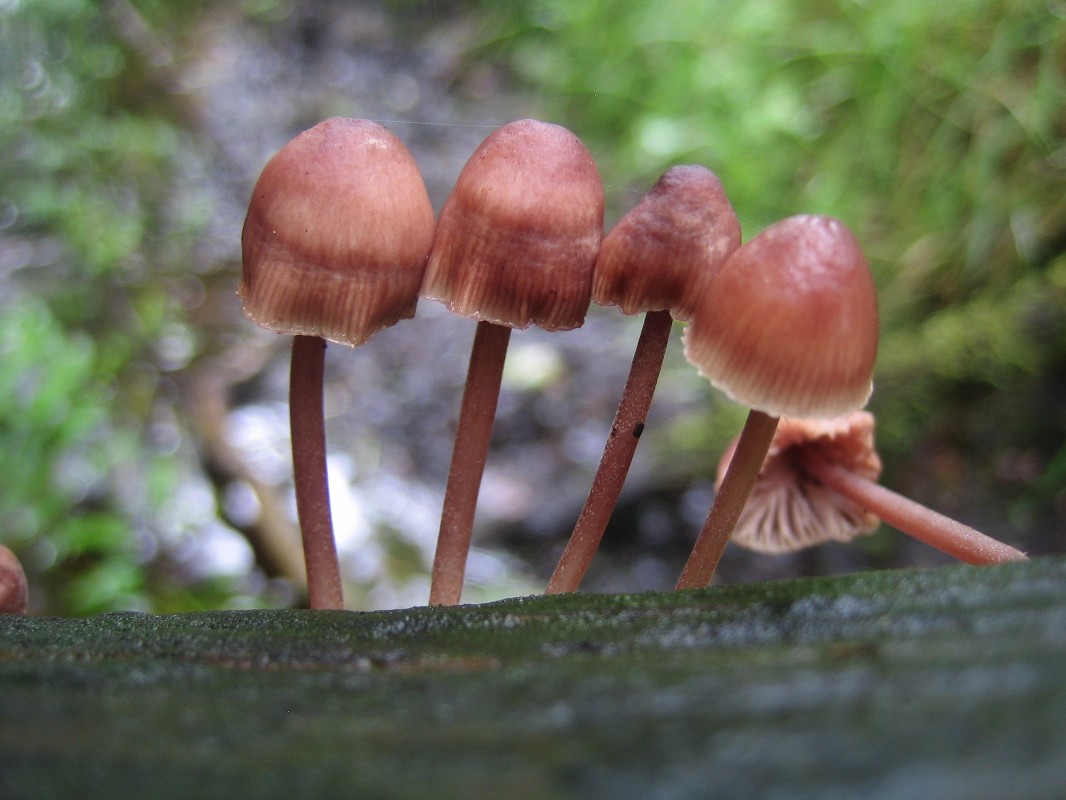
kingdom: Fungi
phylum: Basidiomycota
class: Agaricomycetes
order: Agaricales
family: Mycenaceae
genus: Mycena
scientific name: Mycena haematopus
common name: blødende huesvamp
